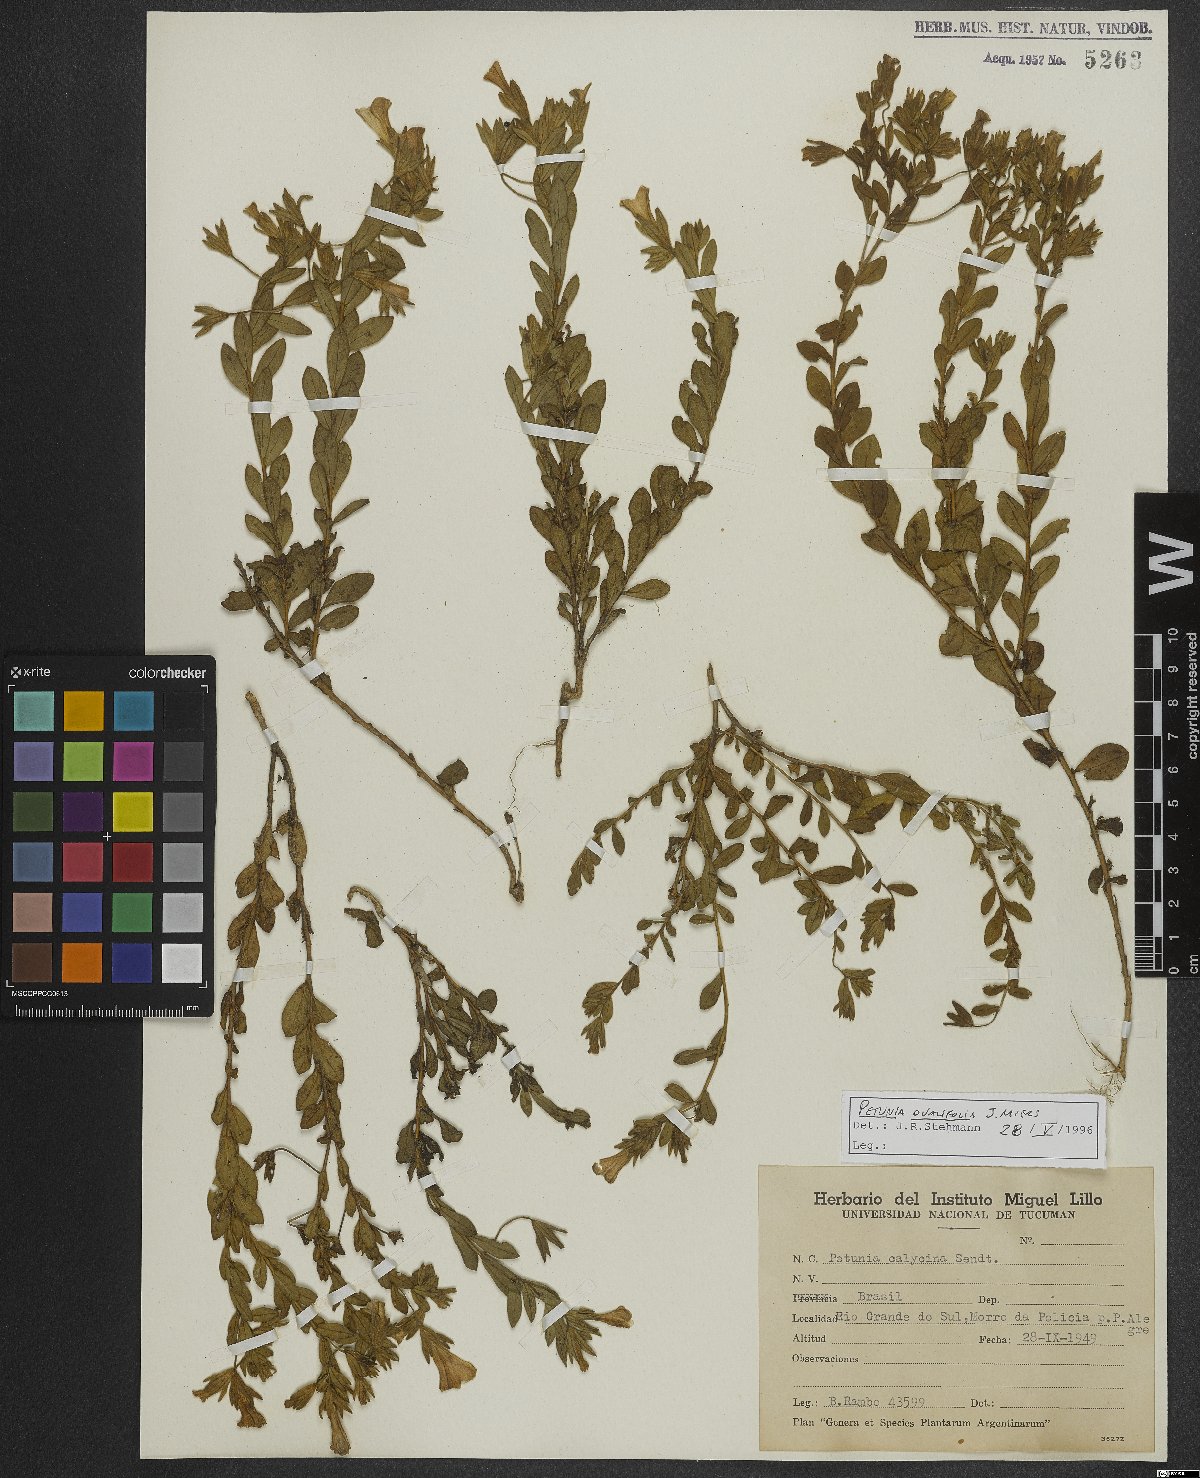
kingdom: Plantae
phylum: Tracheophyta
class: Magnoliopsida
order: Solanales
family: Solanaceae
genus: Calibrachoa
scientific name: Calibrachoa calycina
